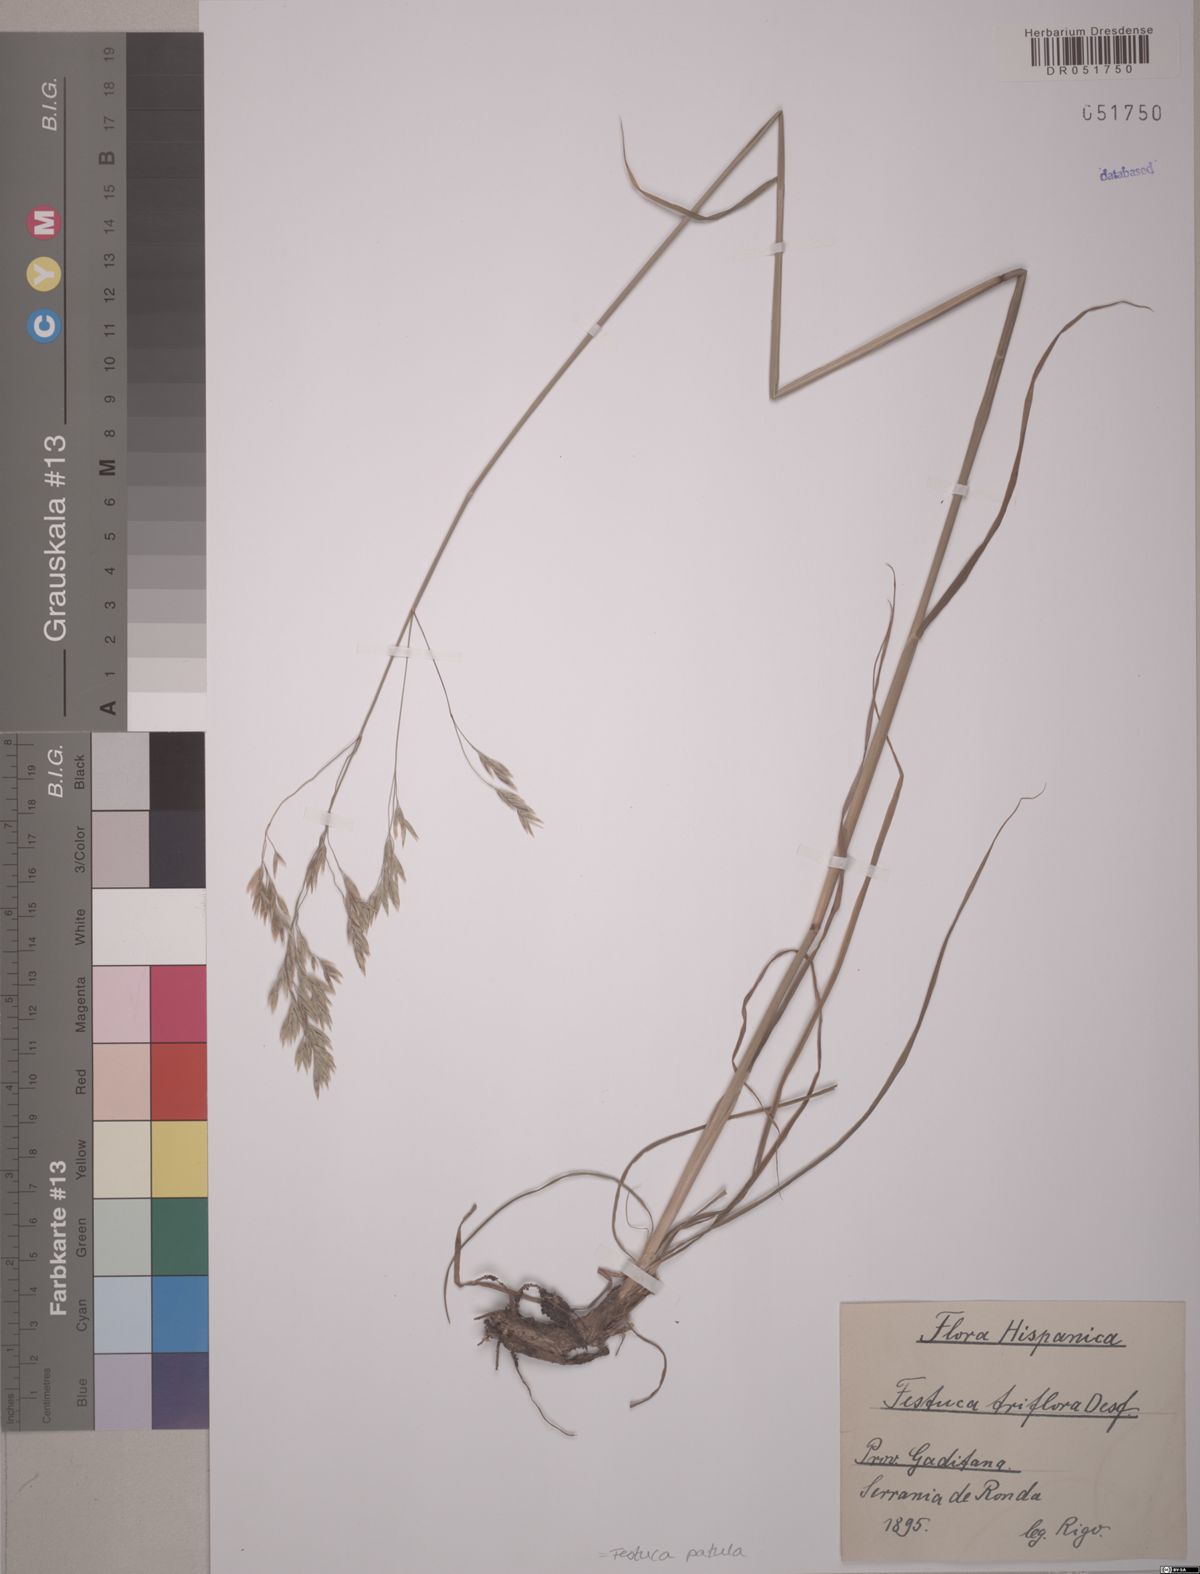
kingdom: Plantae
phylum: Tracheophyta
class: Liliopsida
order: Poales
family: Poaceae
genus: Patzkea
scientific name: Patzkea patula
